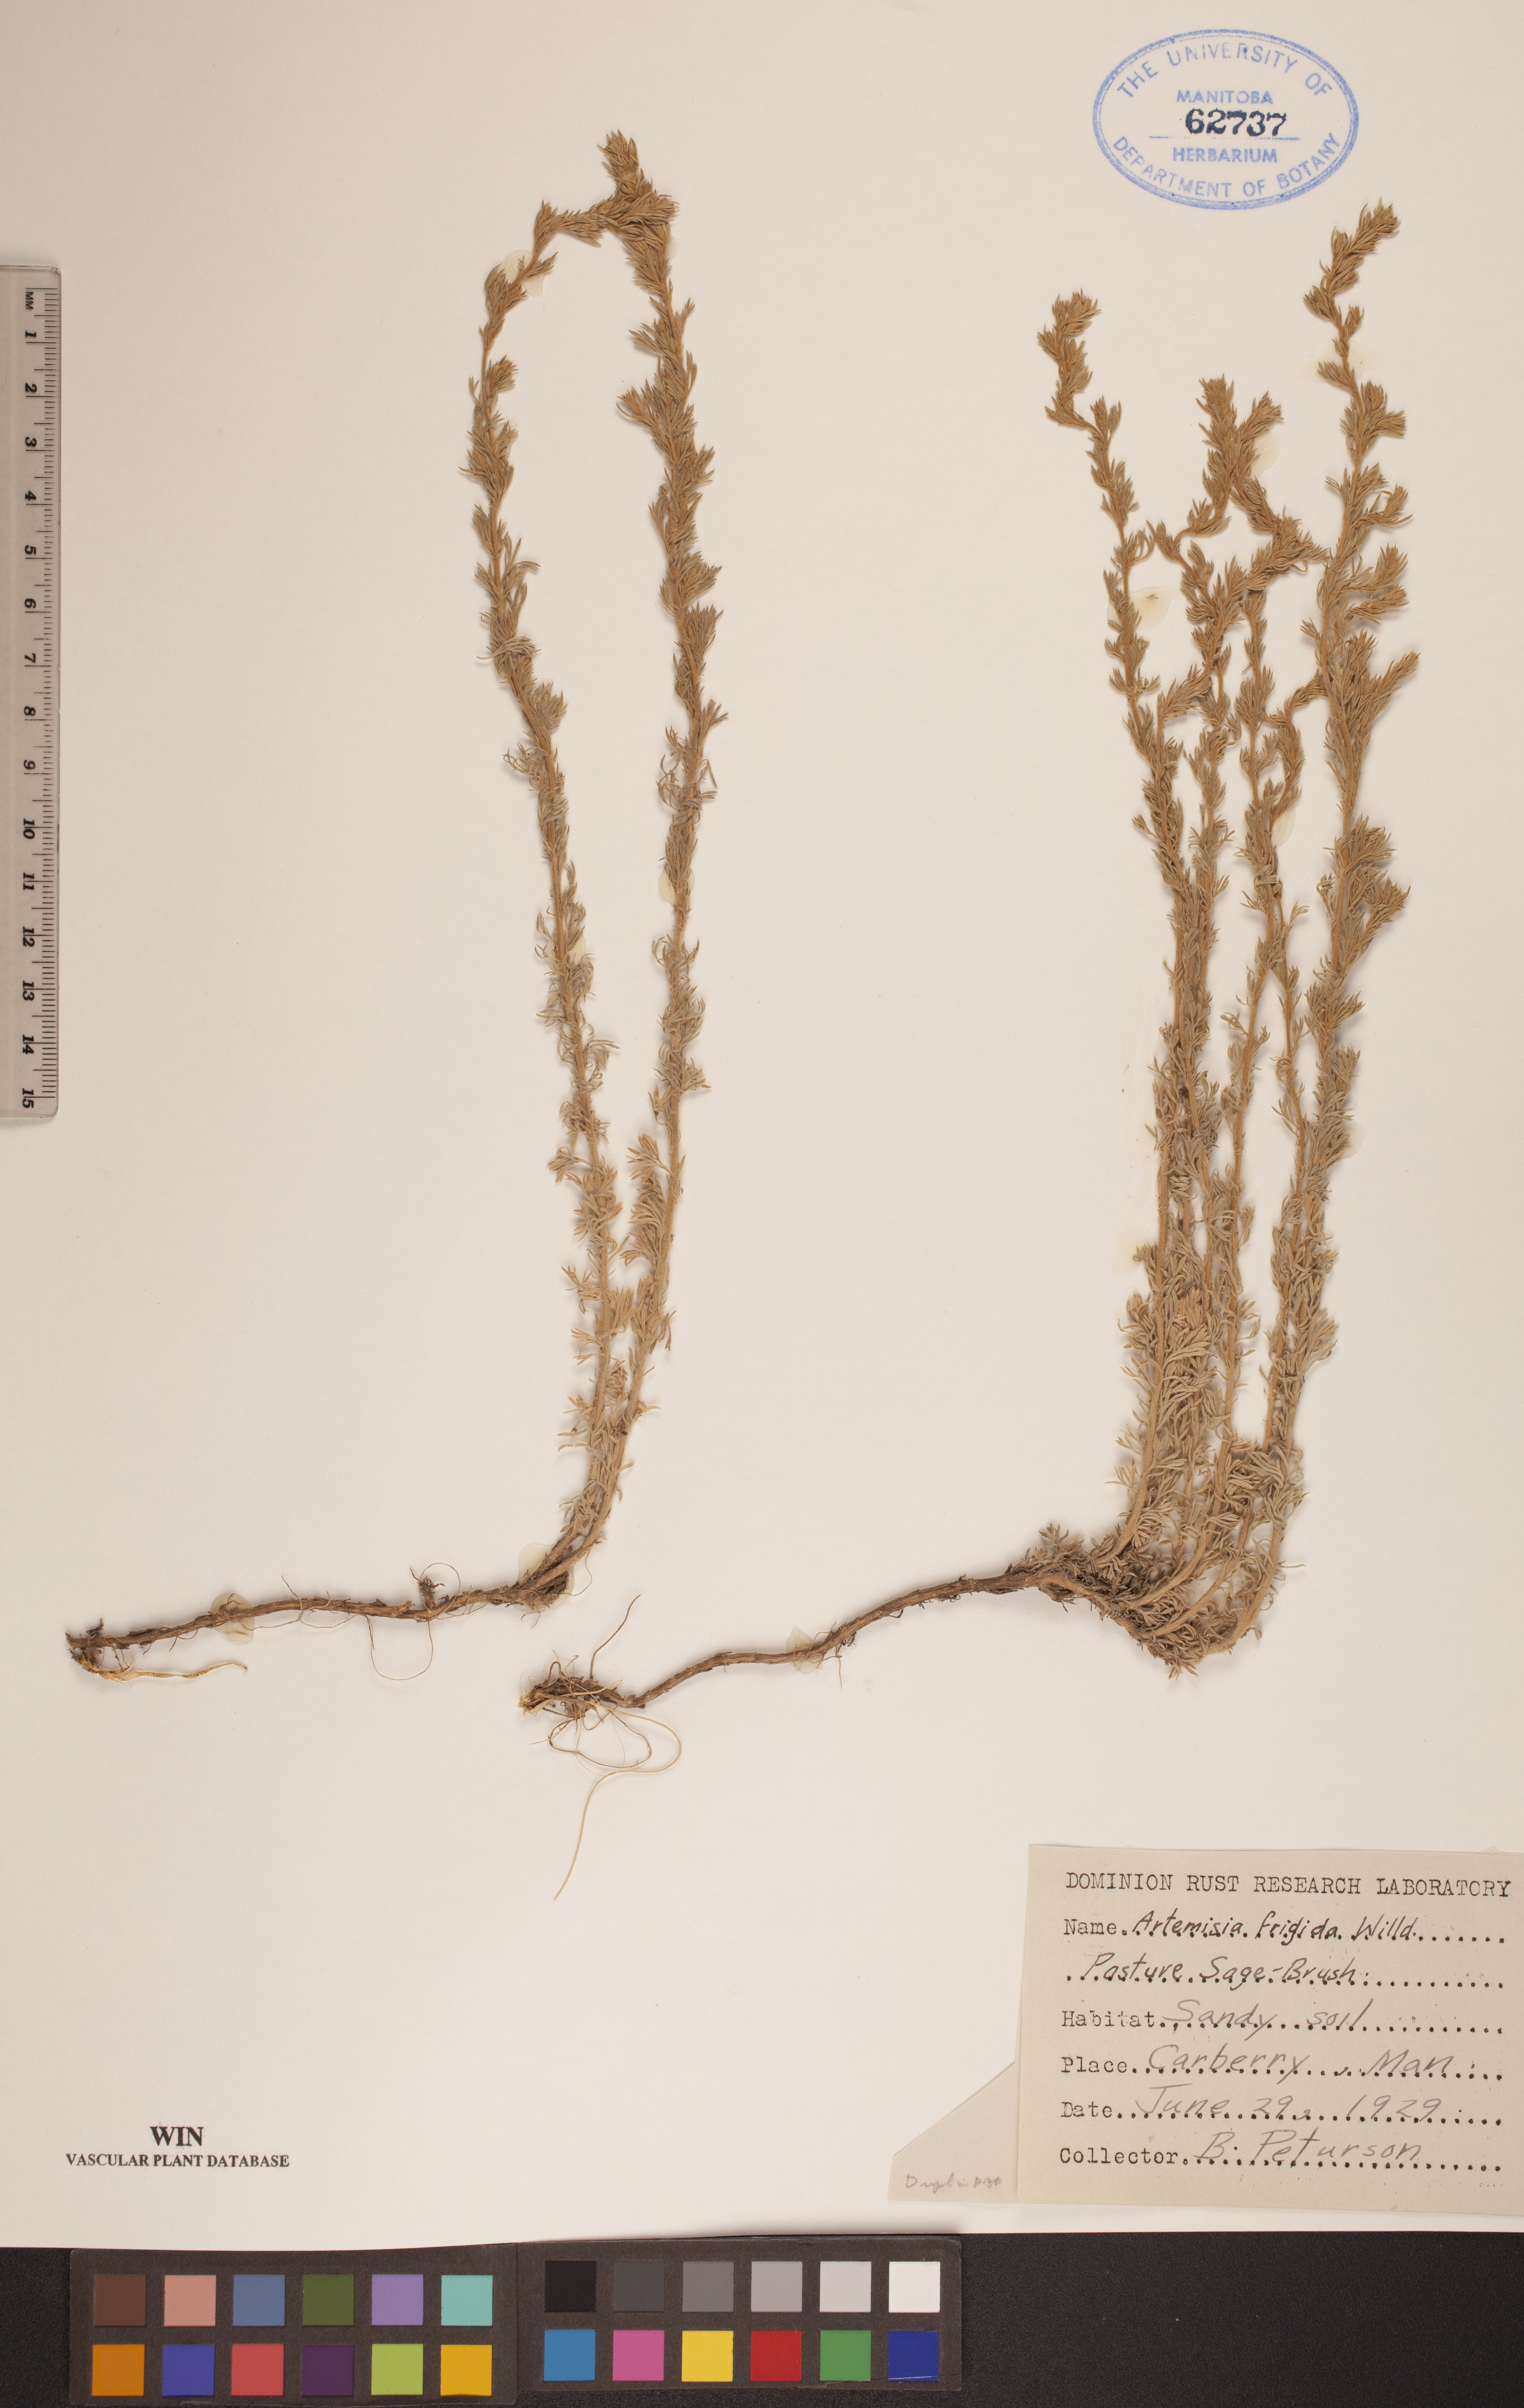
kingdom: Plantae
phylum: Tracheophyta
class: Magnoliopsida
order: Asterales
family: Asteraceae
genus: Artemisia
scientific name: Artemisia frigida
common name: Prairie sagewort
